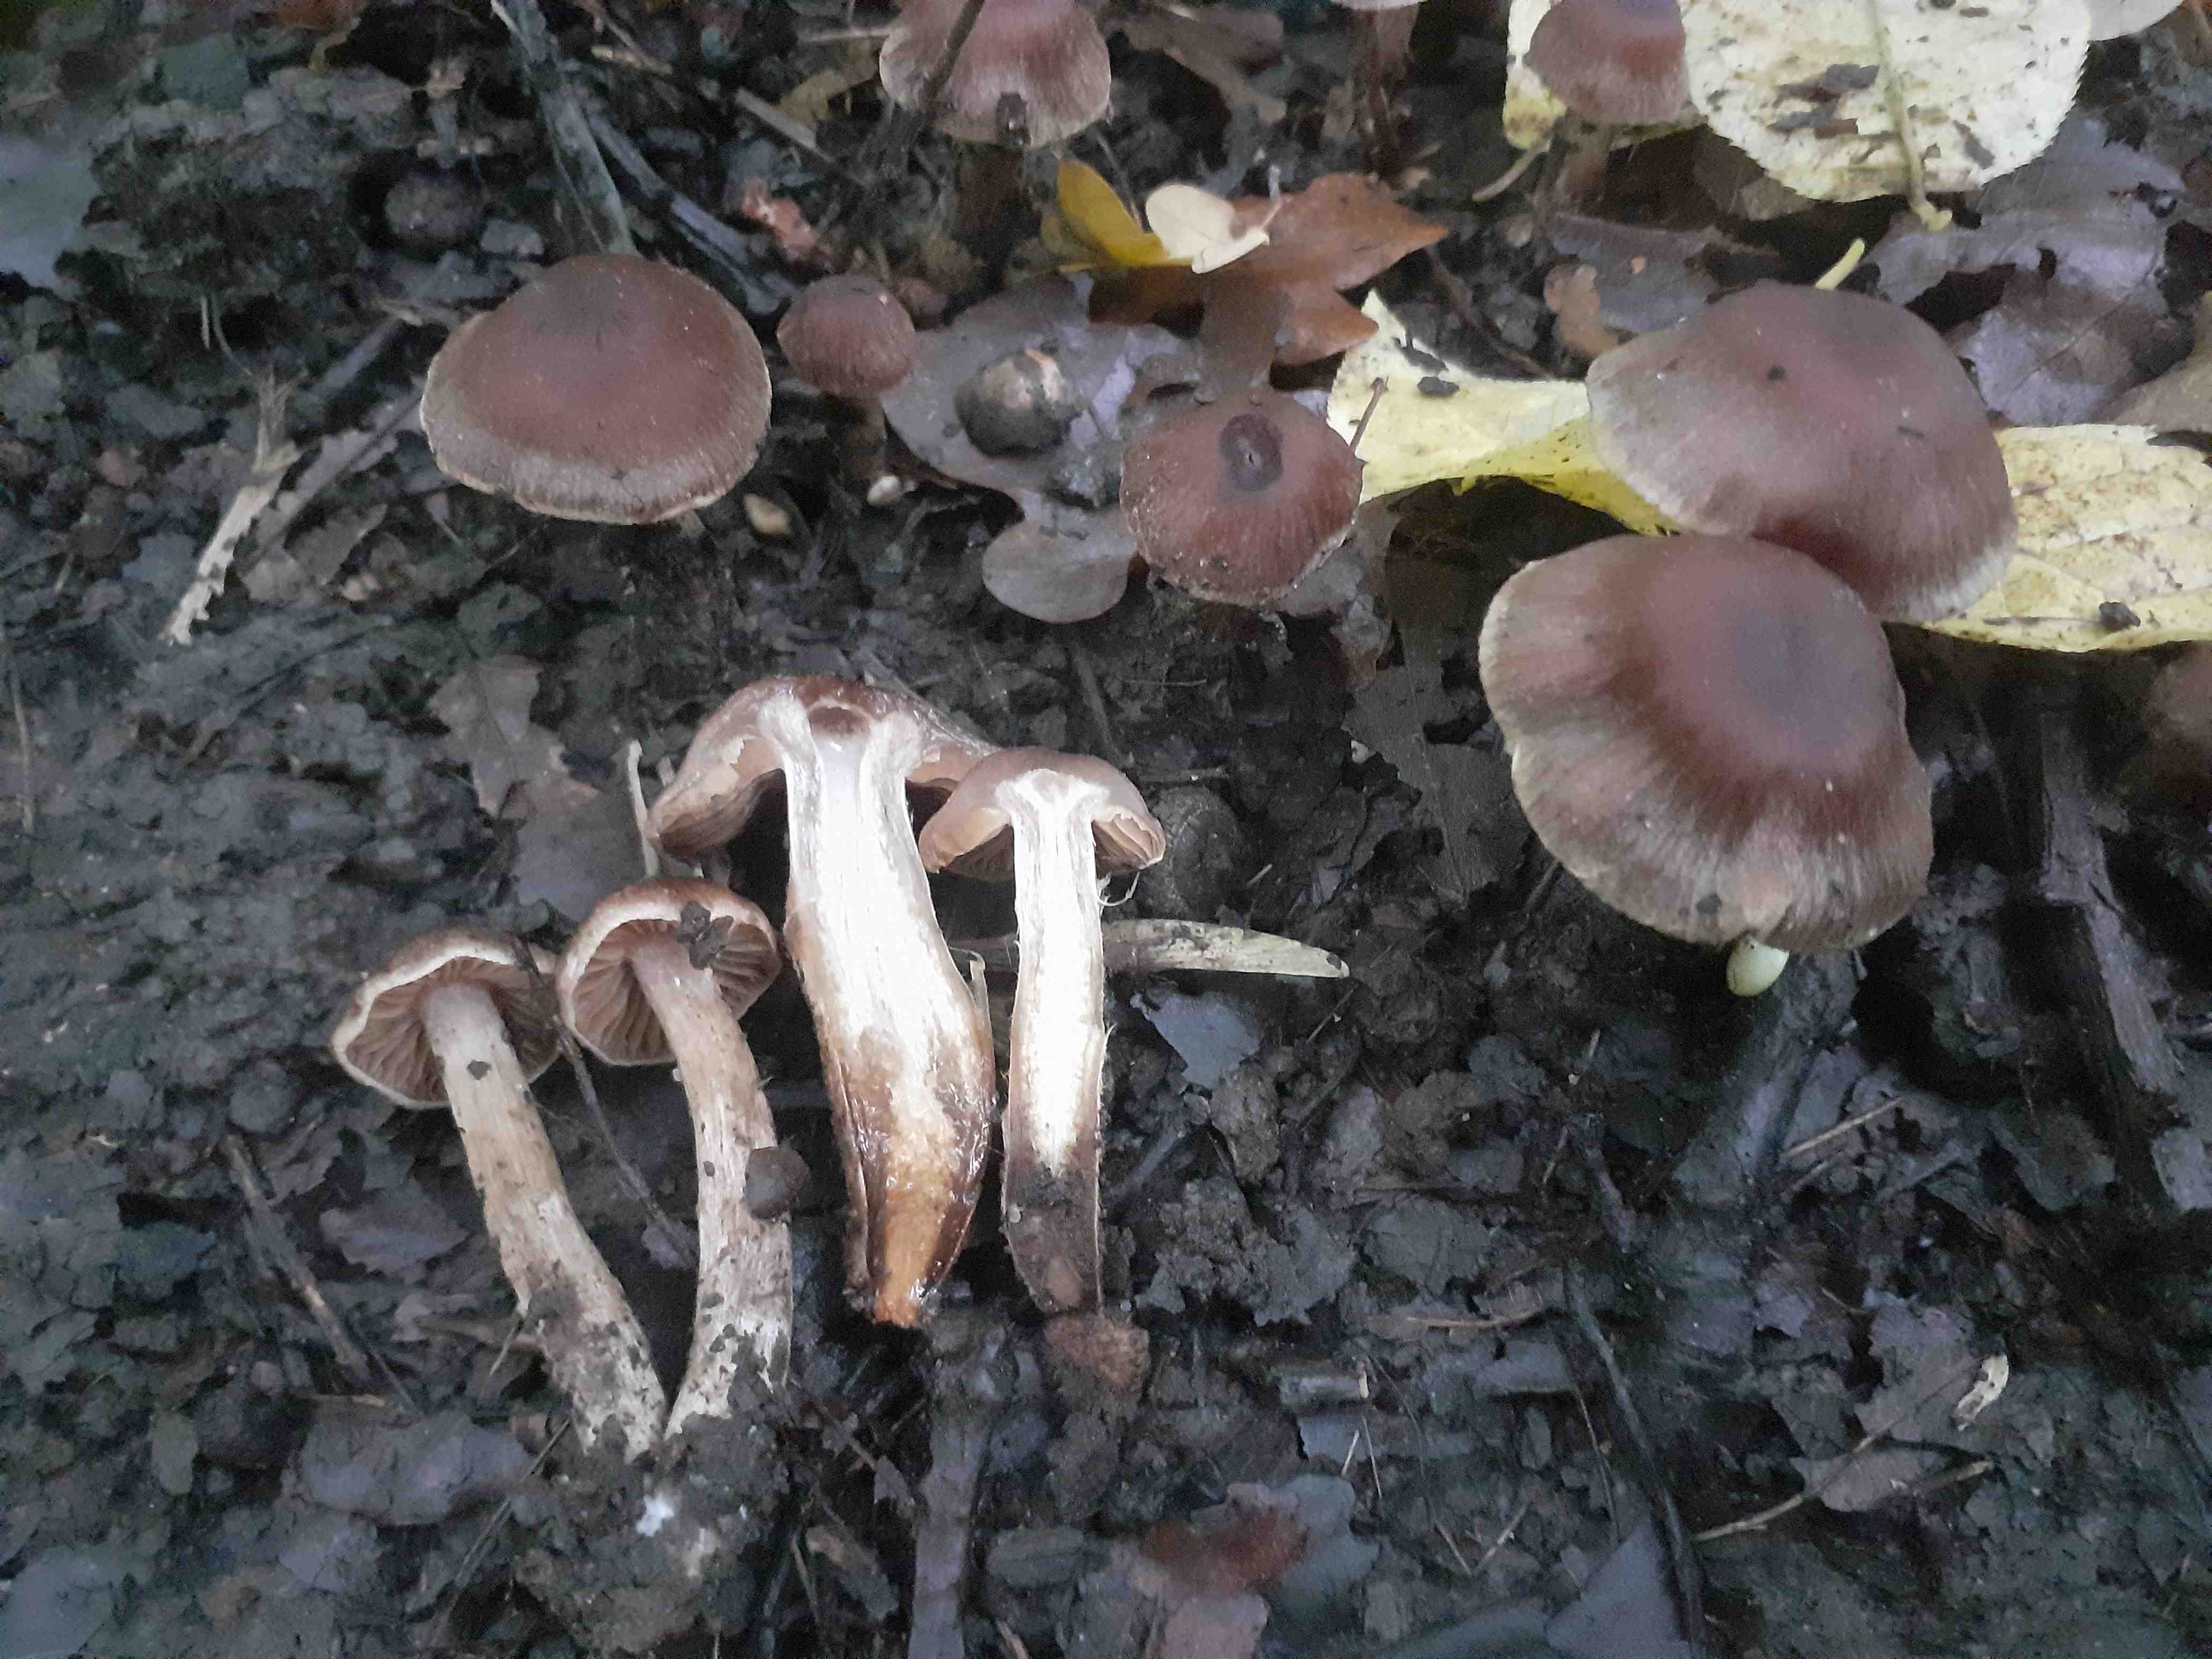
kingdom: Fungi
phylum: Basidiomycota
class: Agaricomycetes
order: Agaricales
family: Cortinariaceae
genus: Cortinarius
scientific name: Cortinarius fuscogracilescens
